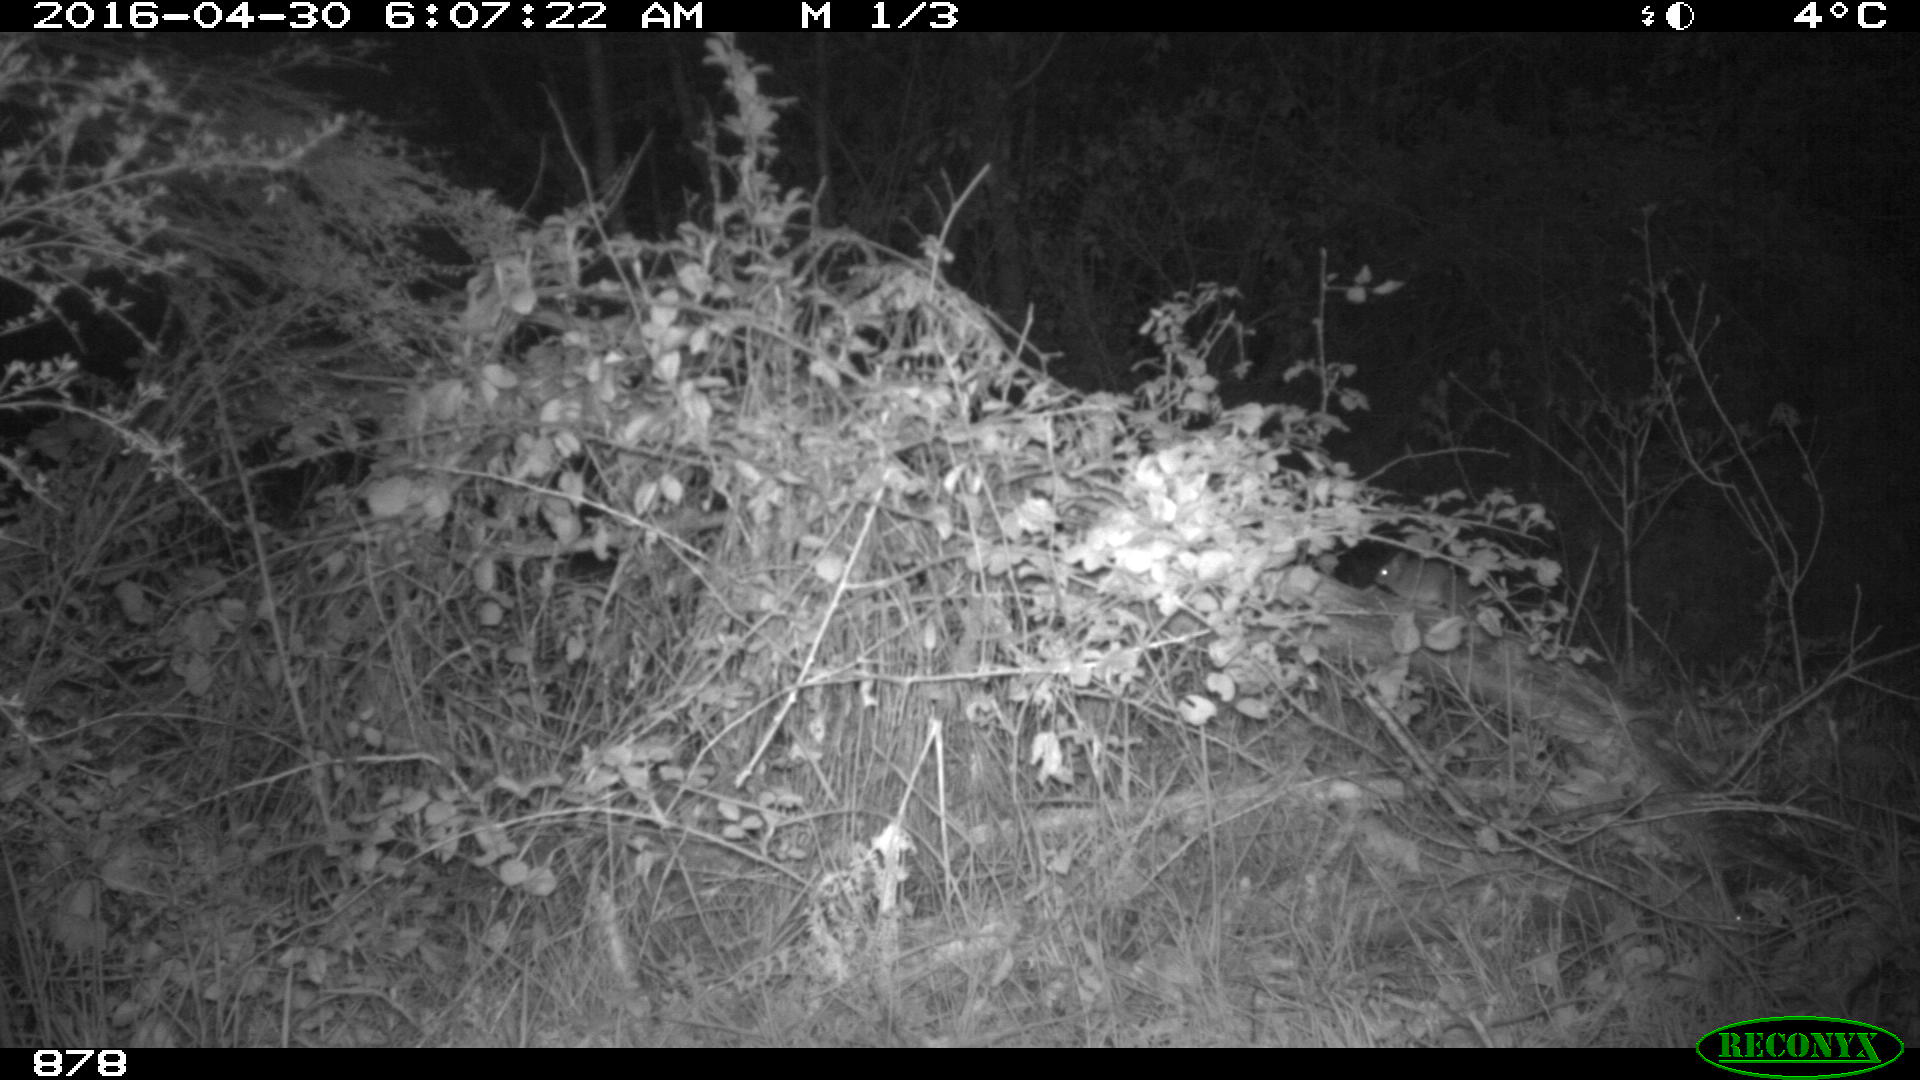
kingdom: Animalia
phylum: Chordata
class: Mammalia
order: Rodentia
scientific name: Rodentia
